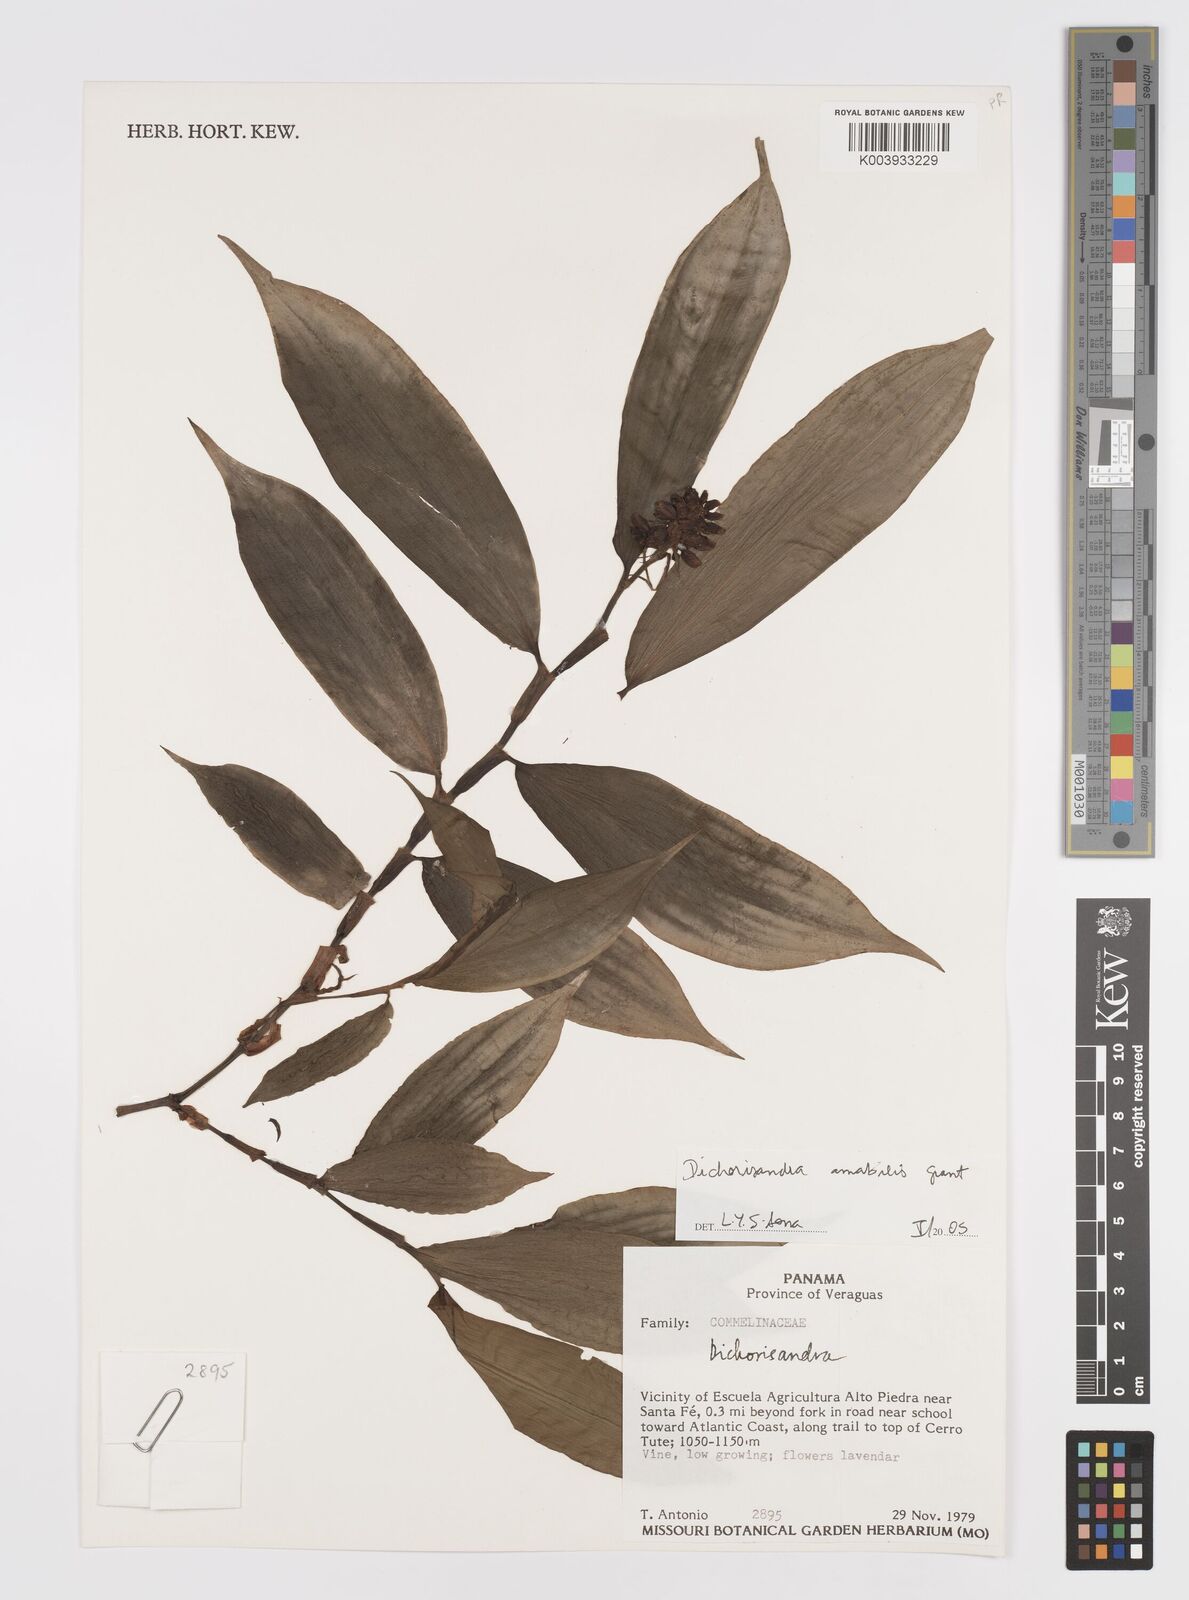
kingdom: Plantae
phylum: Tracheophyta
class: Liliopsida
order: Commelinales
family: Commelinaceae
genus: Dichorisandra
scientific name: Dichorisandra amabilis
